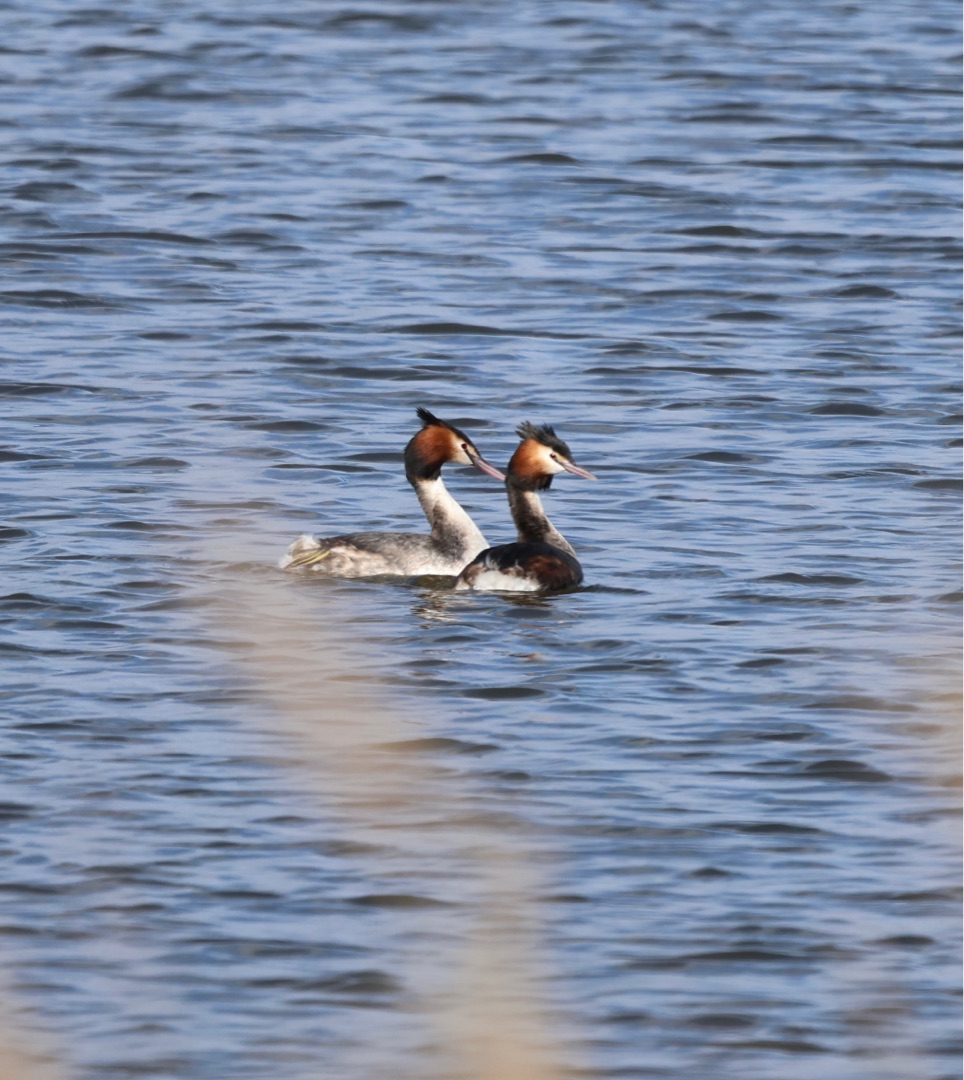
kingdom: Animalia
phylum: Chordata
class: Aves
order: Podicipediformes
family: Podicipedidae
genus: Podiceps
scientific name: Podiceps cristatus
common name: Toppet lappedykker
